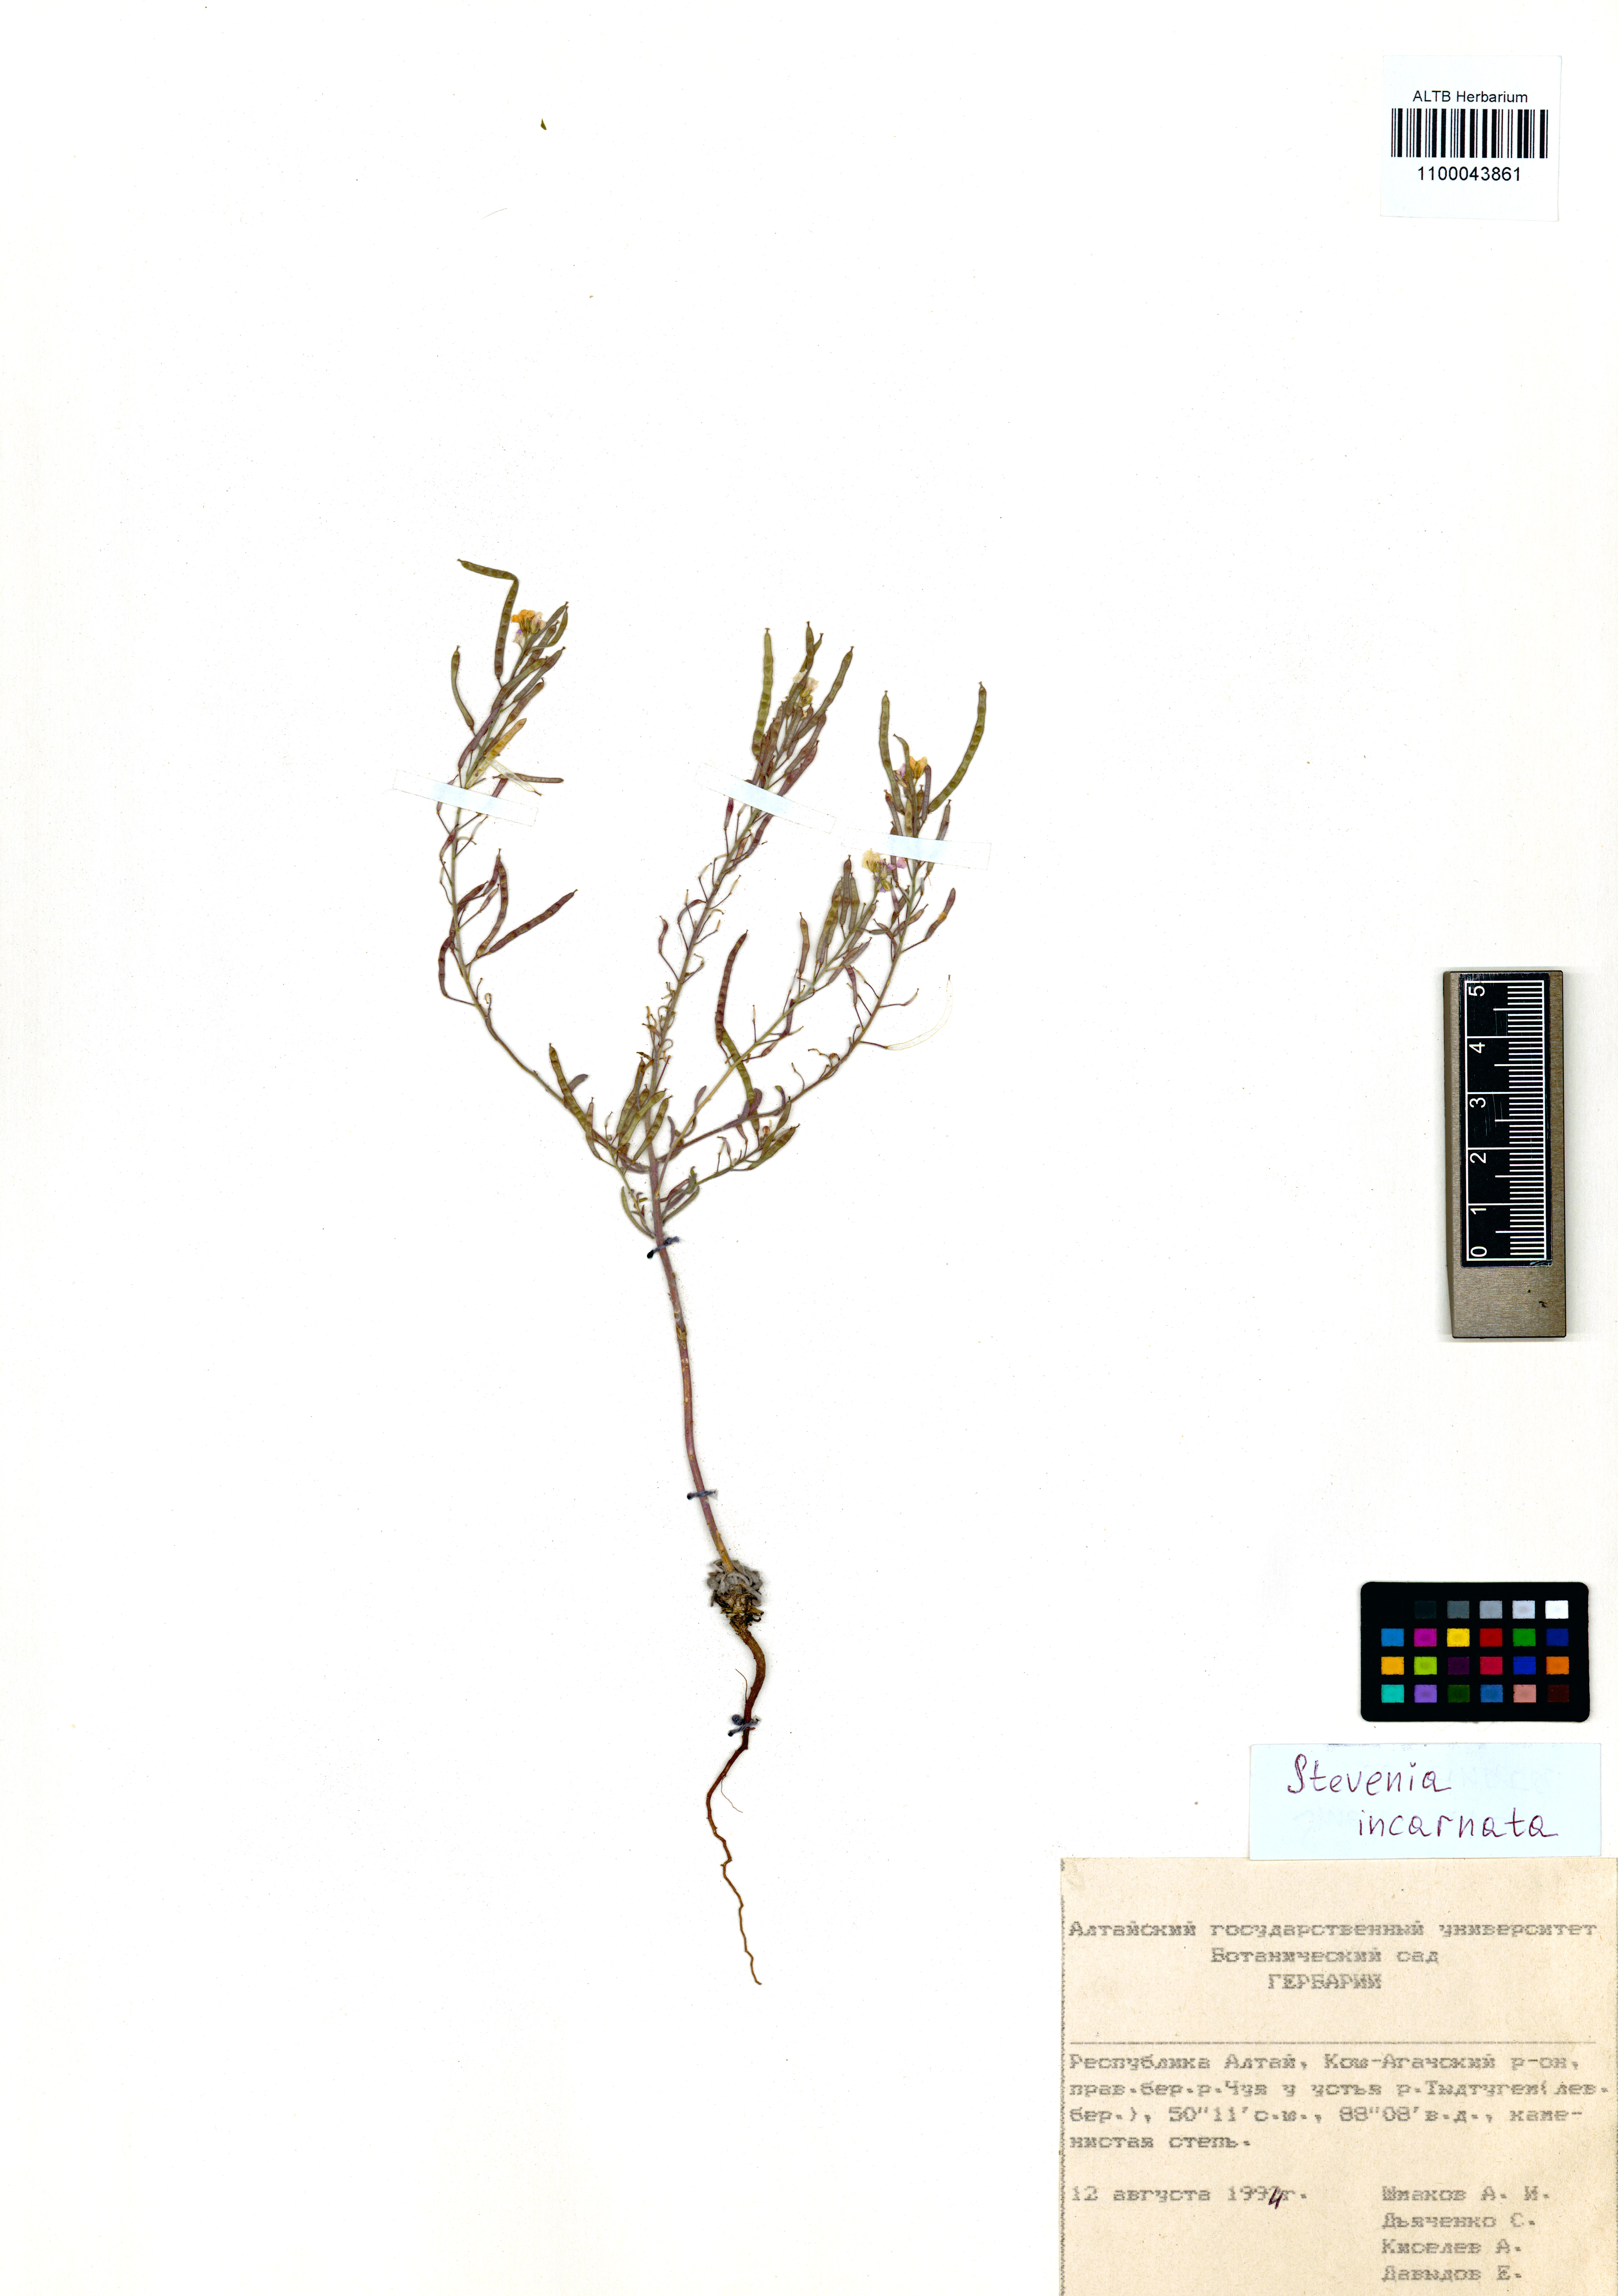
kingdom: Plantae
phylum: Tracheophyta
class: Magnoliopsida
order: Brassicales
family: Brassicaceae
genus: Stevenia
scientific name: Stevenia incarnata
